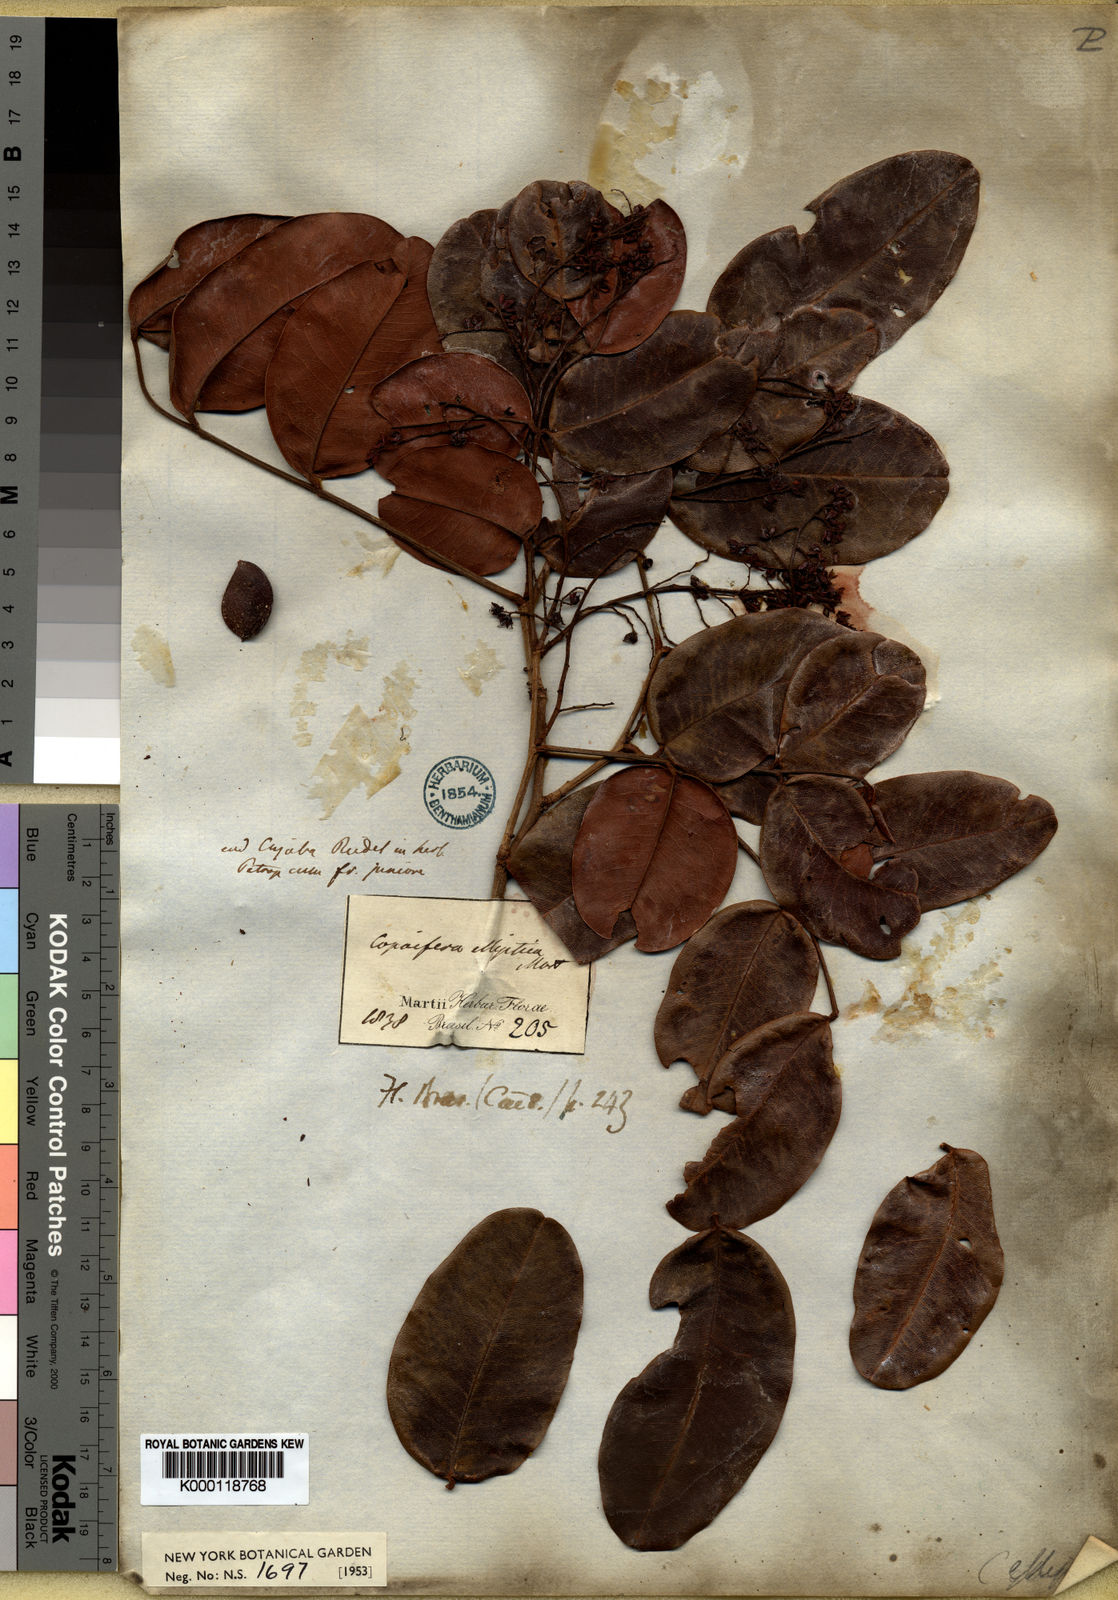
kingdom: Plantae
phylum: Tracheophyta
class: Magnoliopsida
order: Fabales
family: Fabaceae
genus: Copaifera
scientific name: Copaifera elliptica
